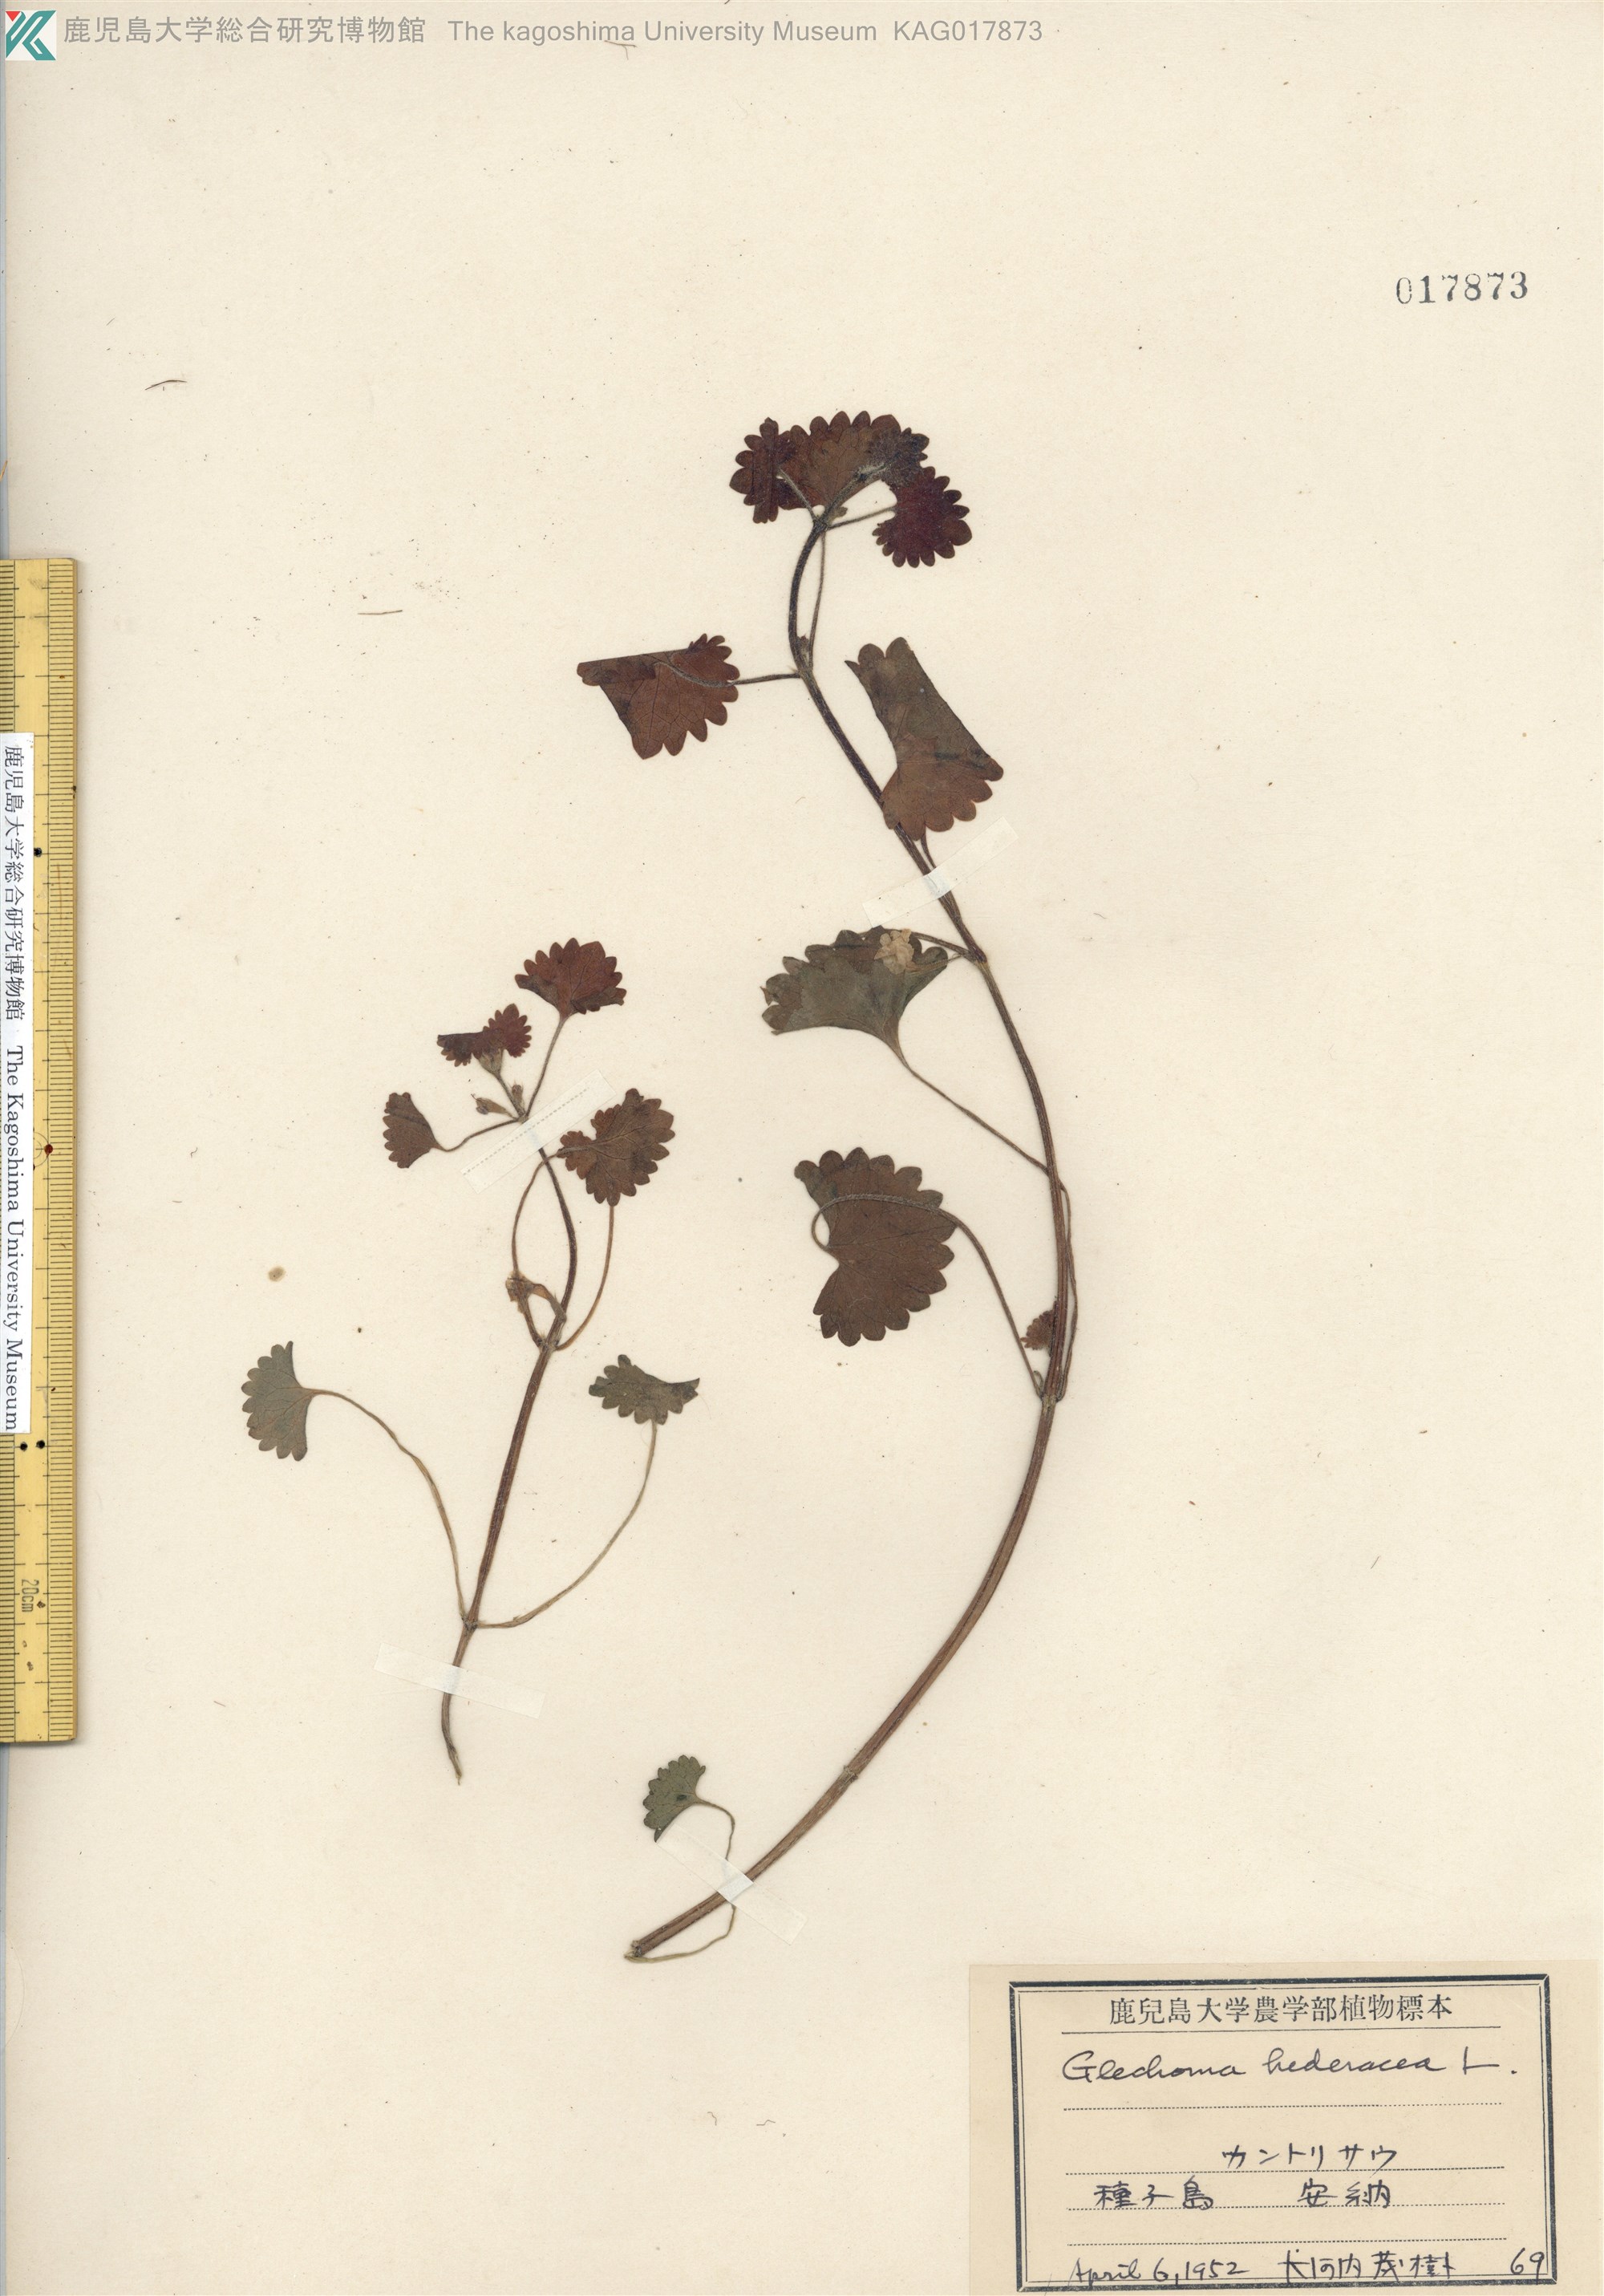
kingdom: Plantae
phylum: Tracheophyta
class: Magnoliopsida
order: Lamiales
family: Lamiaceae
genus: Glechoma
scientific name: Glechoma grandis
